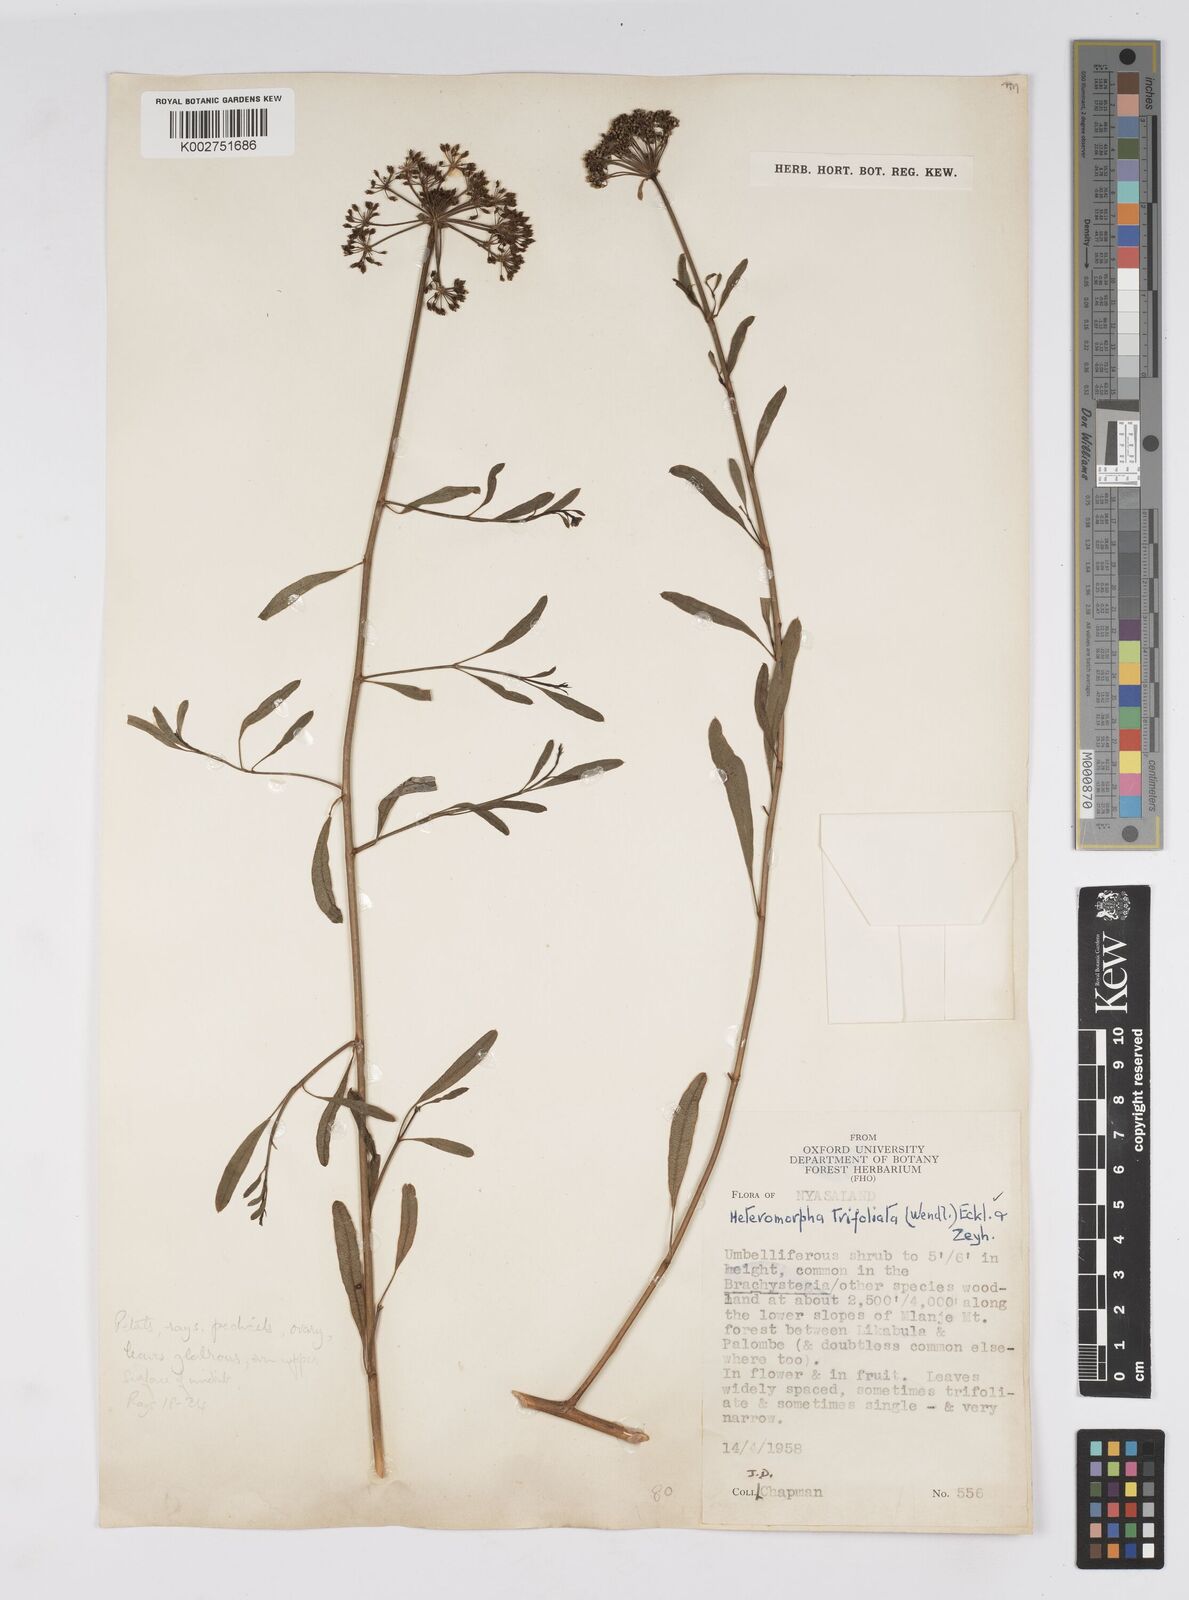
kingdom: Plantae
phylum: Tracheophyta
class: Magnoliopsida
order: Apiales
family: Apiaceae
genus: Heteromorpha
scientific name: Heteromorpha stenophylla
